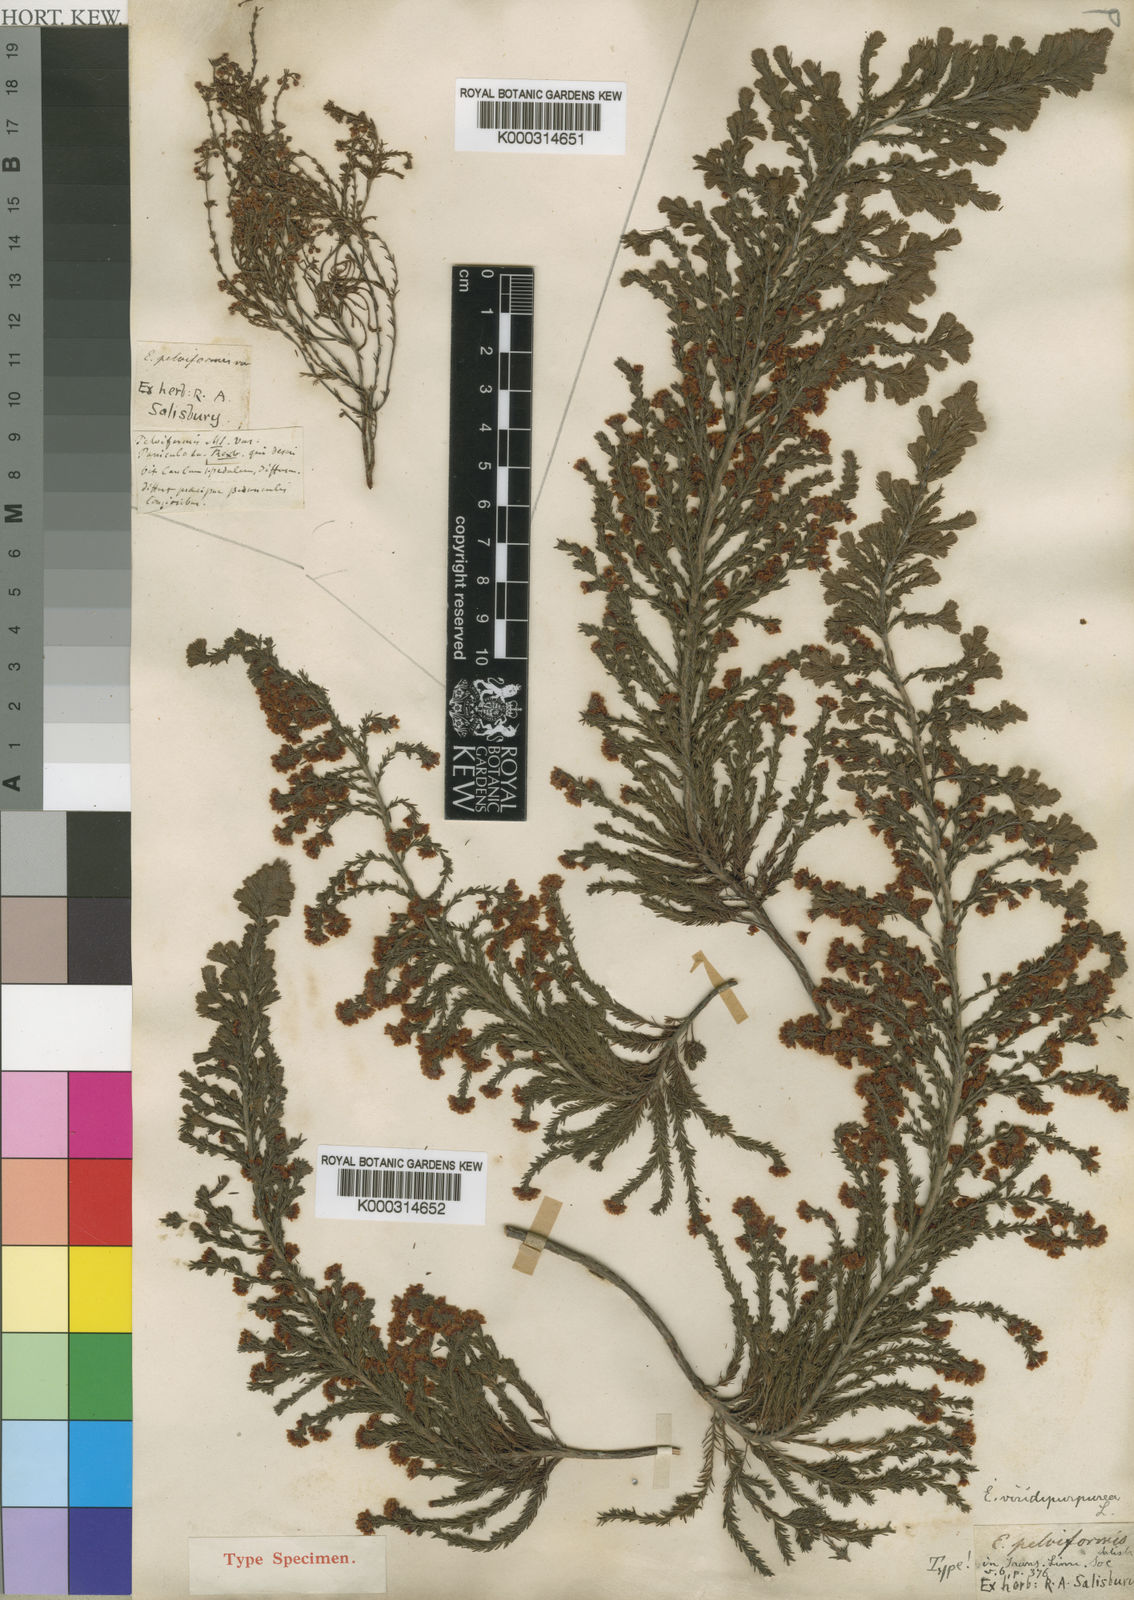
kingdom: Plantae
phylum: Tracheophyta
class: Magnoliopsida
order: Ericales
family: Ericaceae
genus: Erica
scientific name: Erica mauritanica
